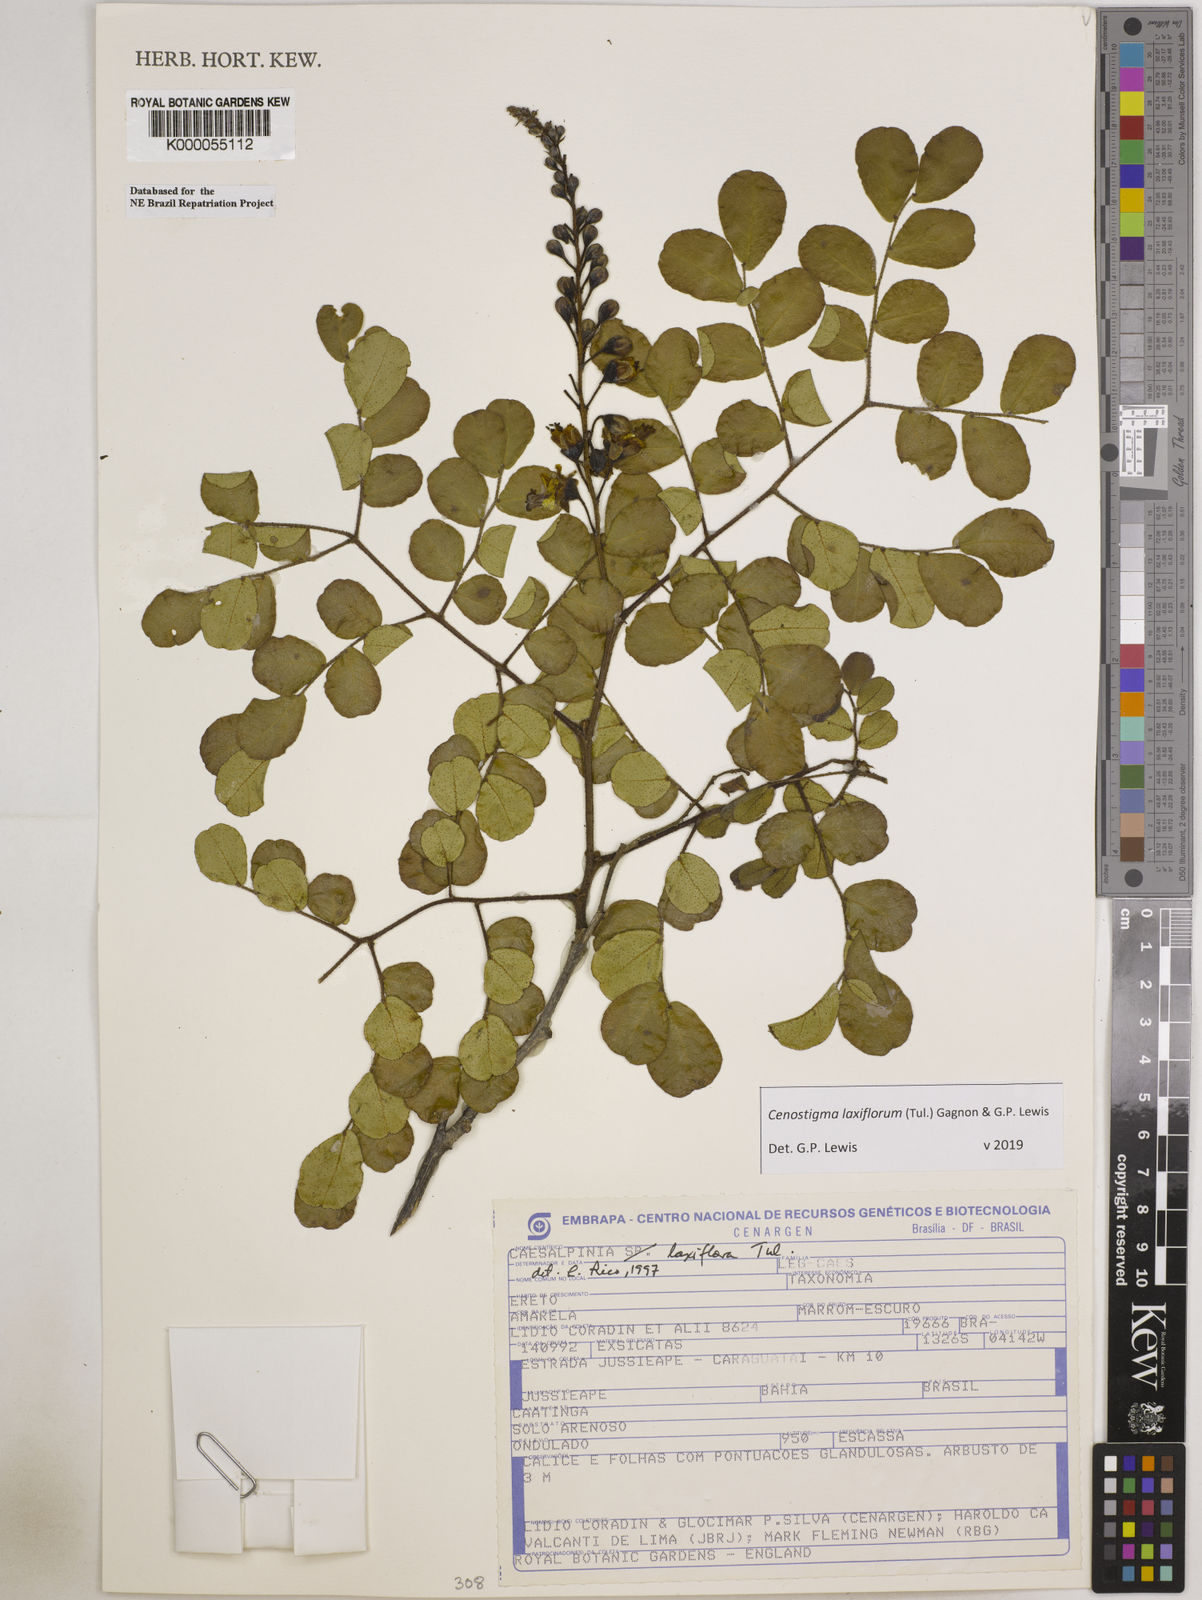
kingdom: Plantae
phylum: Tracheophyta
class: Magnoliopsida
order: Fabales
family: Fabaceae
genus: Cenostigma
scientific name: Cenostigma laxiflorum
